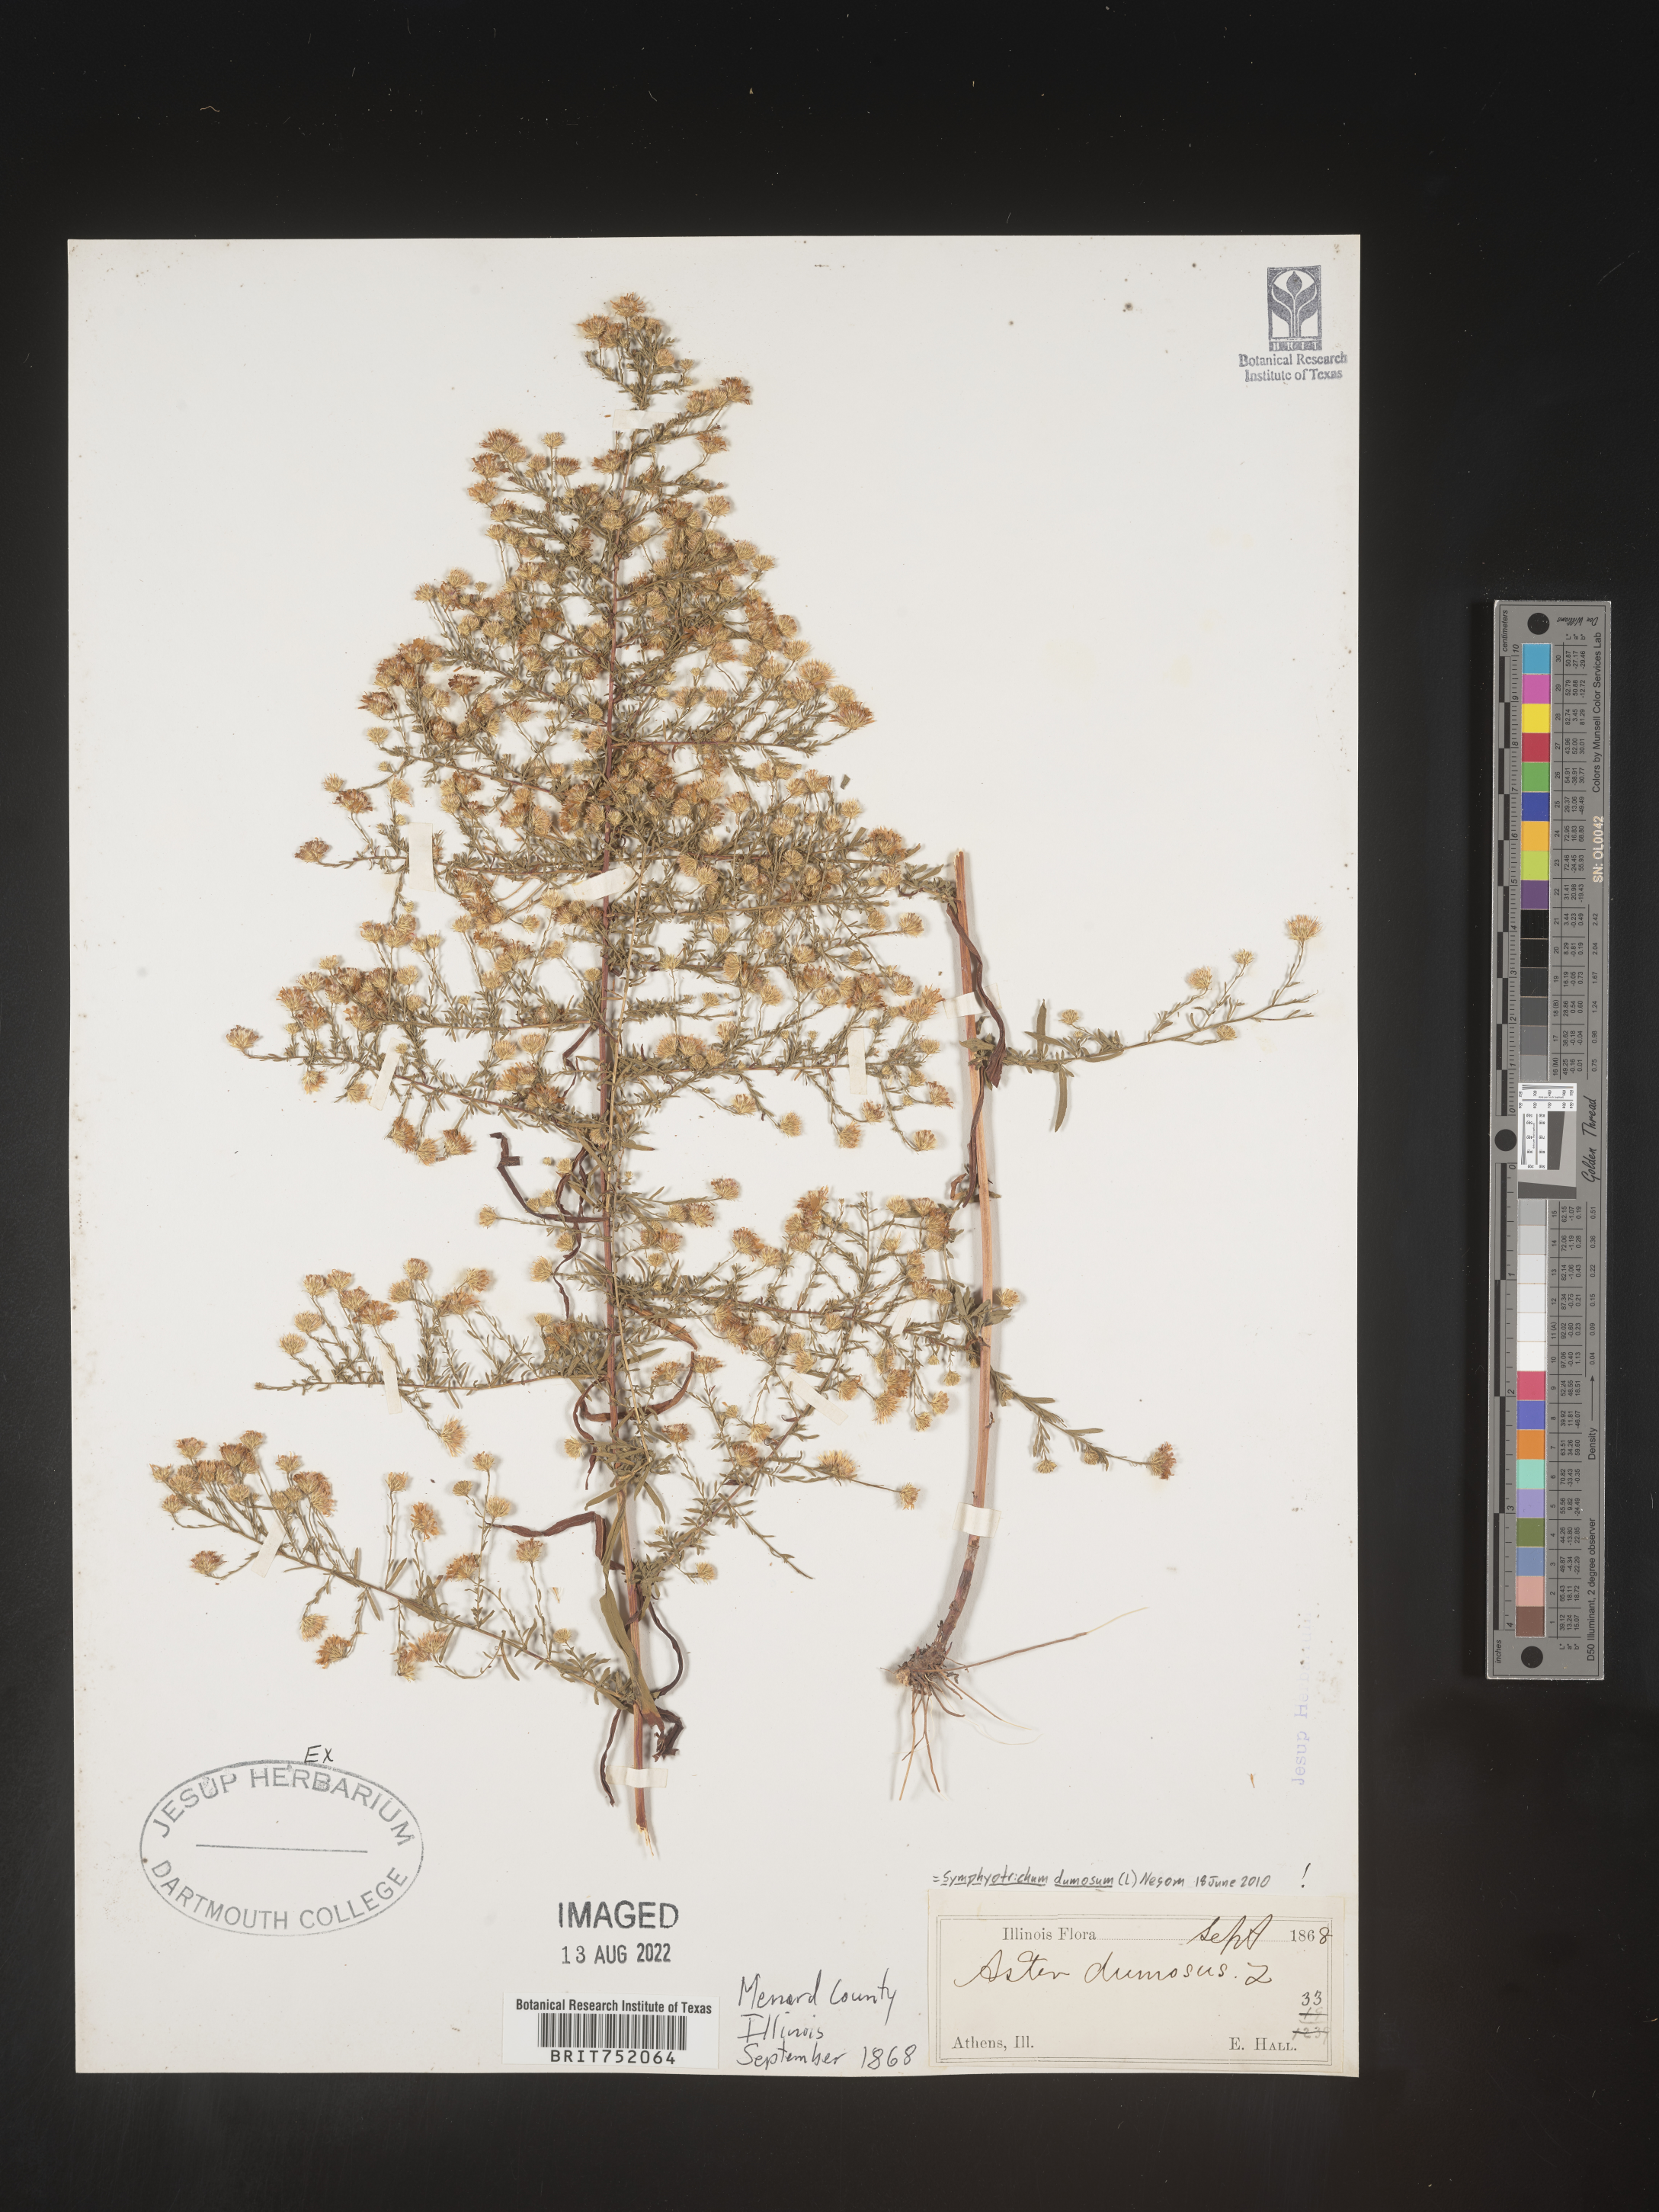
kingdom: Plantae
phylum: Tracheophyta
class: Magnoliopsida
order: Asterales
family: Asteraceae
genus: Symphyotrichum
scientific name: Symphyotrichum dumosum
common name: Bushy aster
